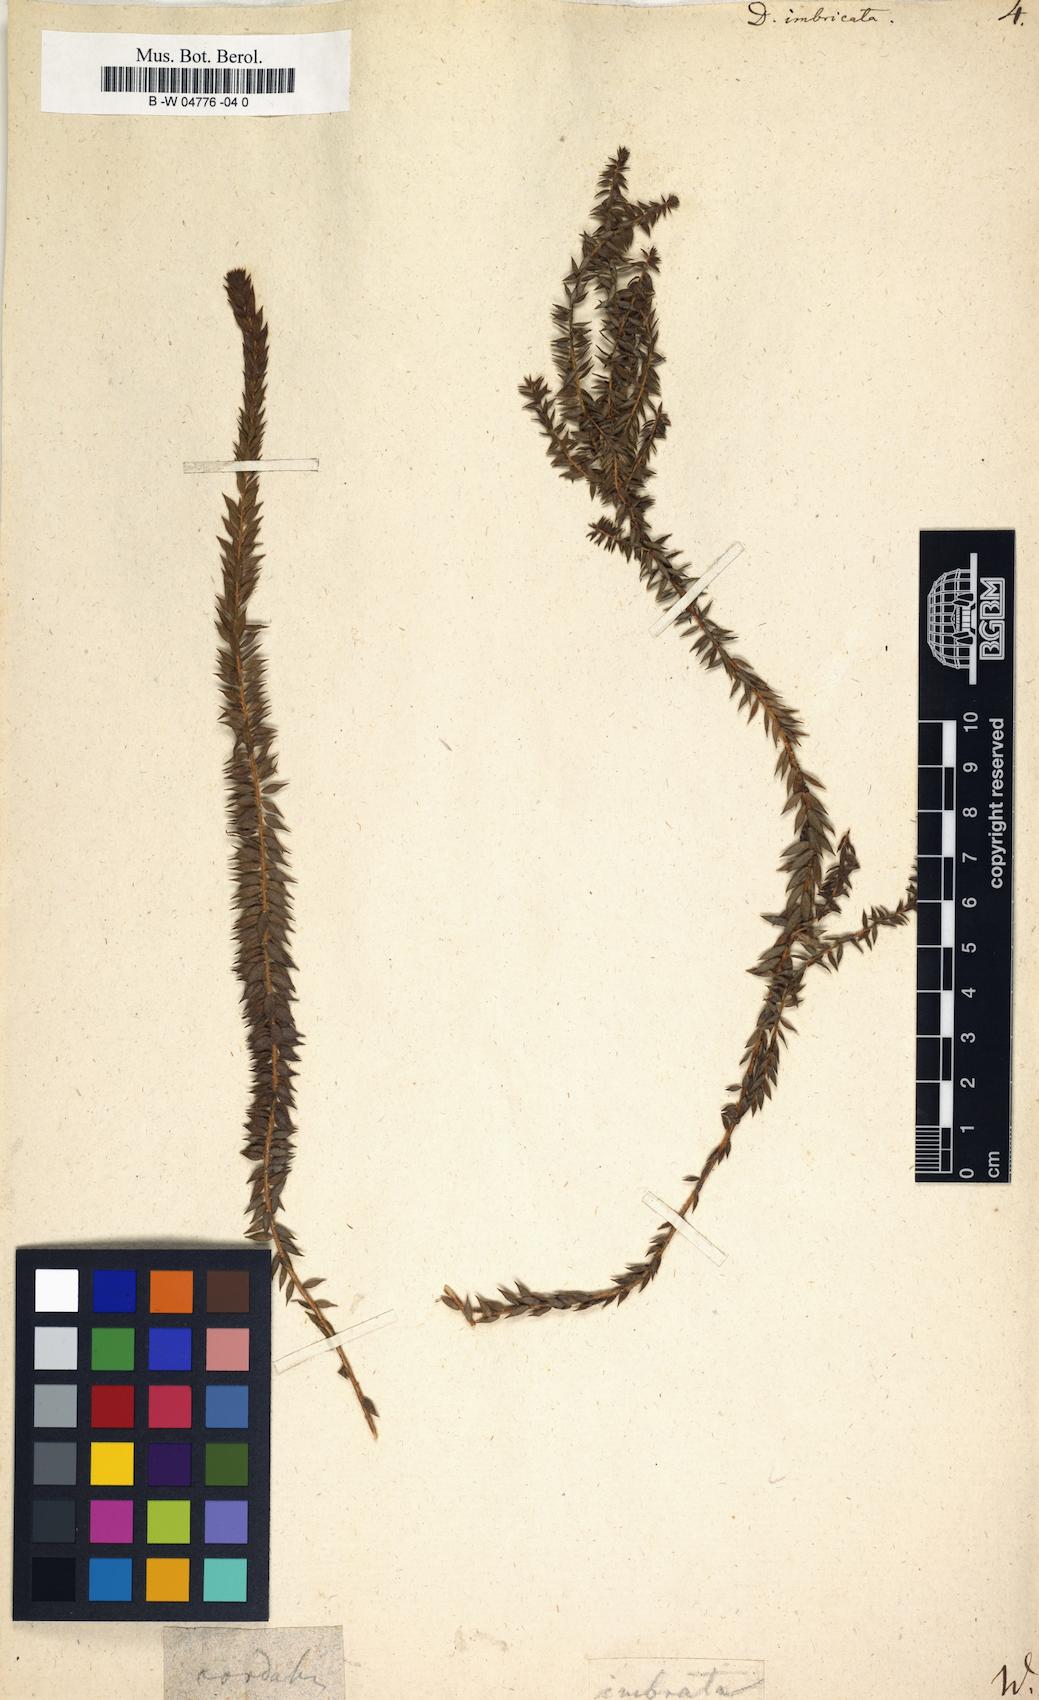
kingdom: Plantae
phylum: Tracheophyta
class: Magnoliopsida
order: Sapindales
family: Rutaceae
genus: Agathosma
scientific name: Agathosma imbricata
